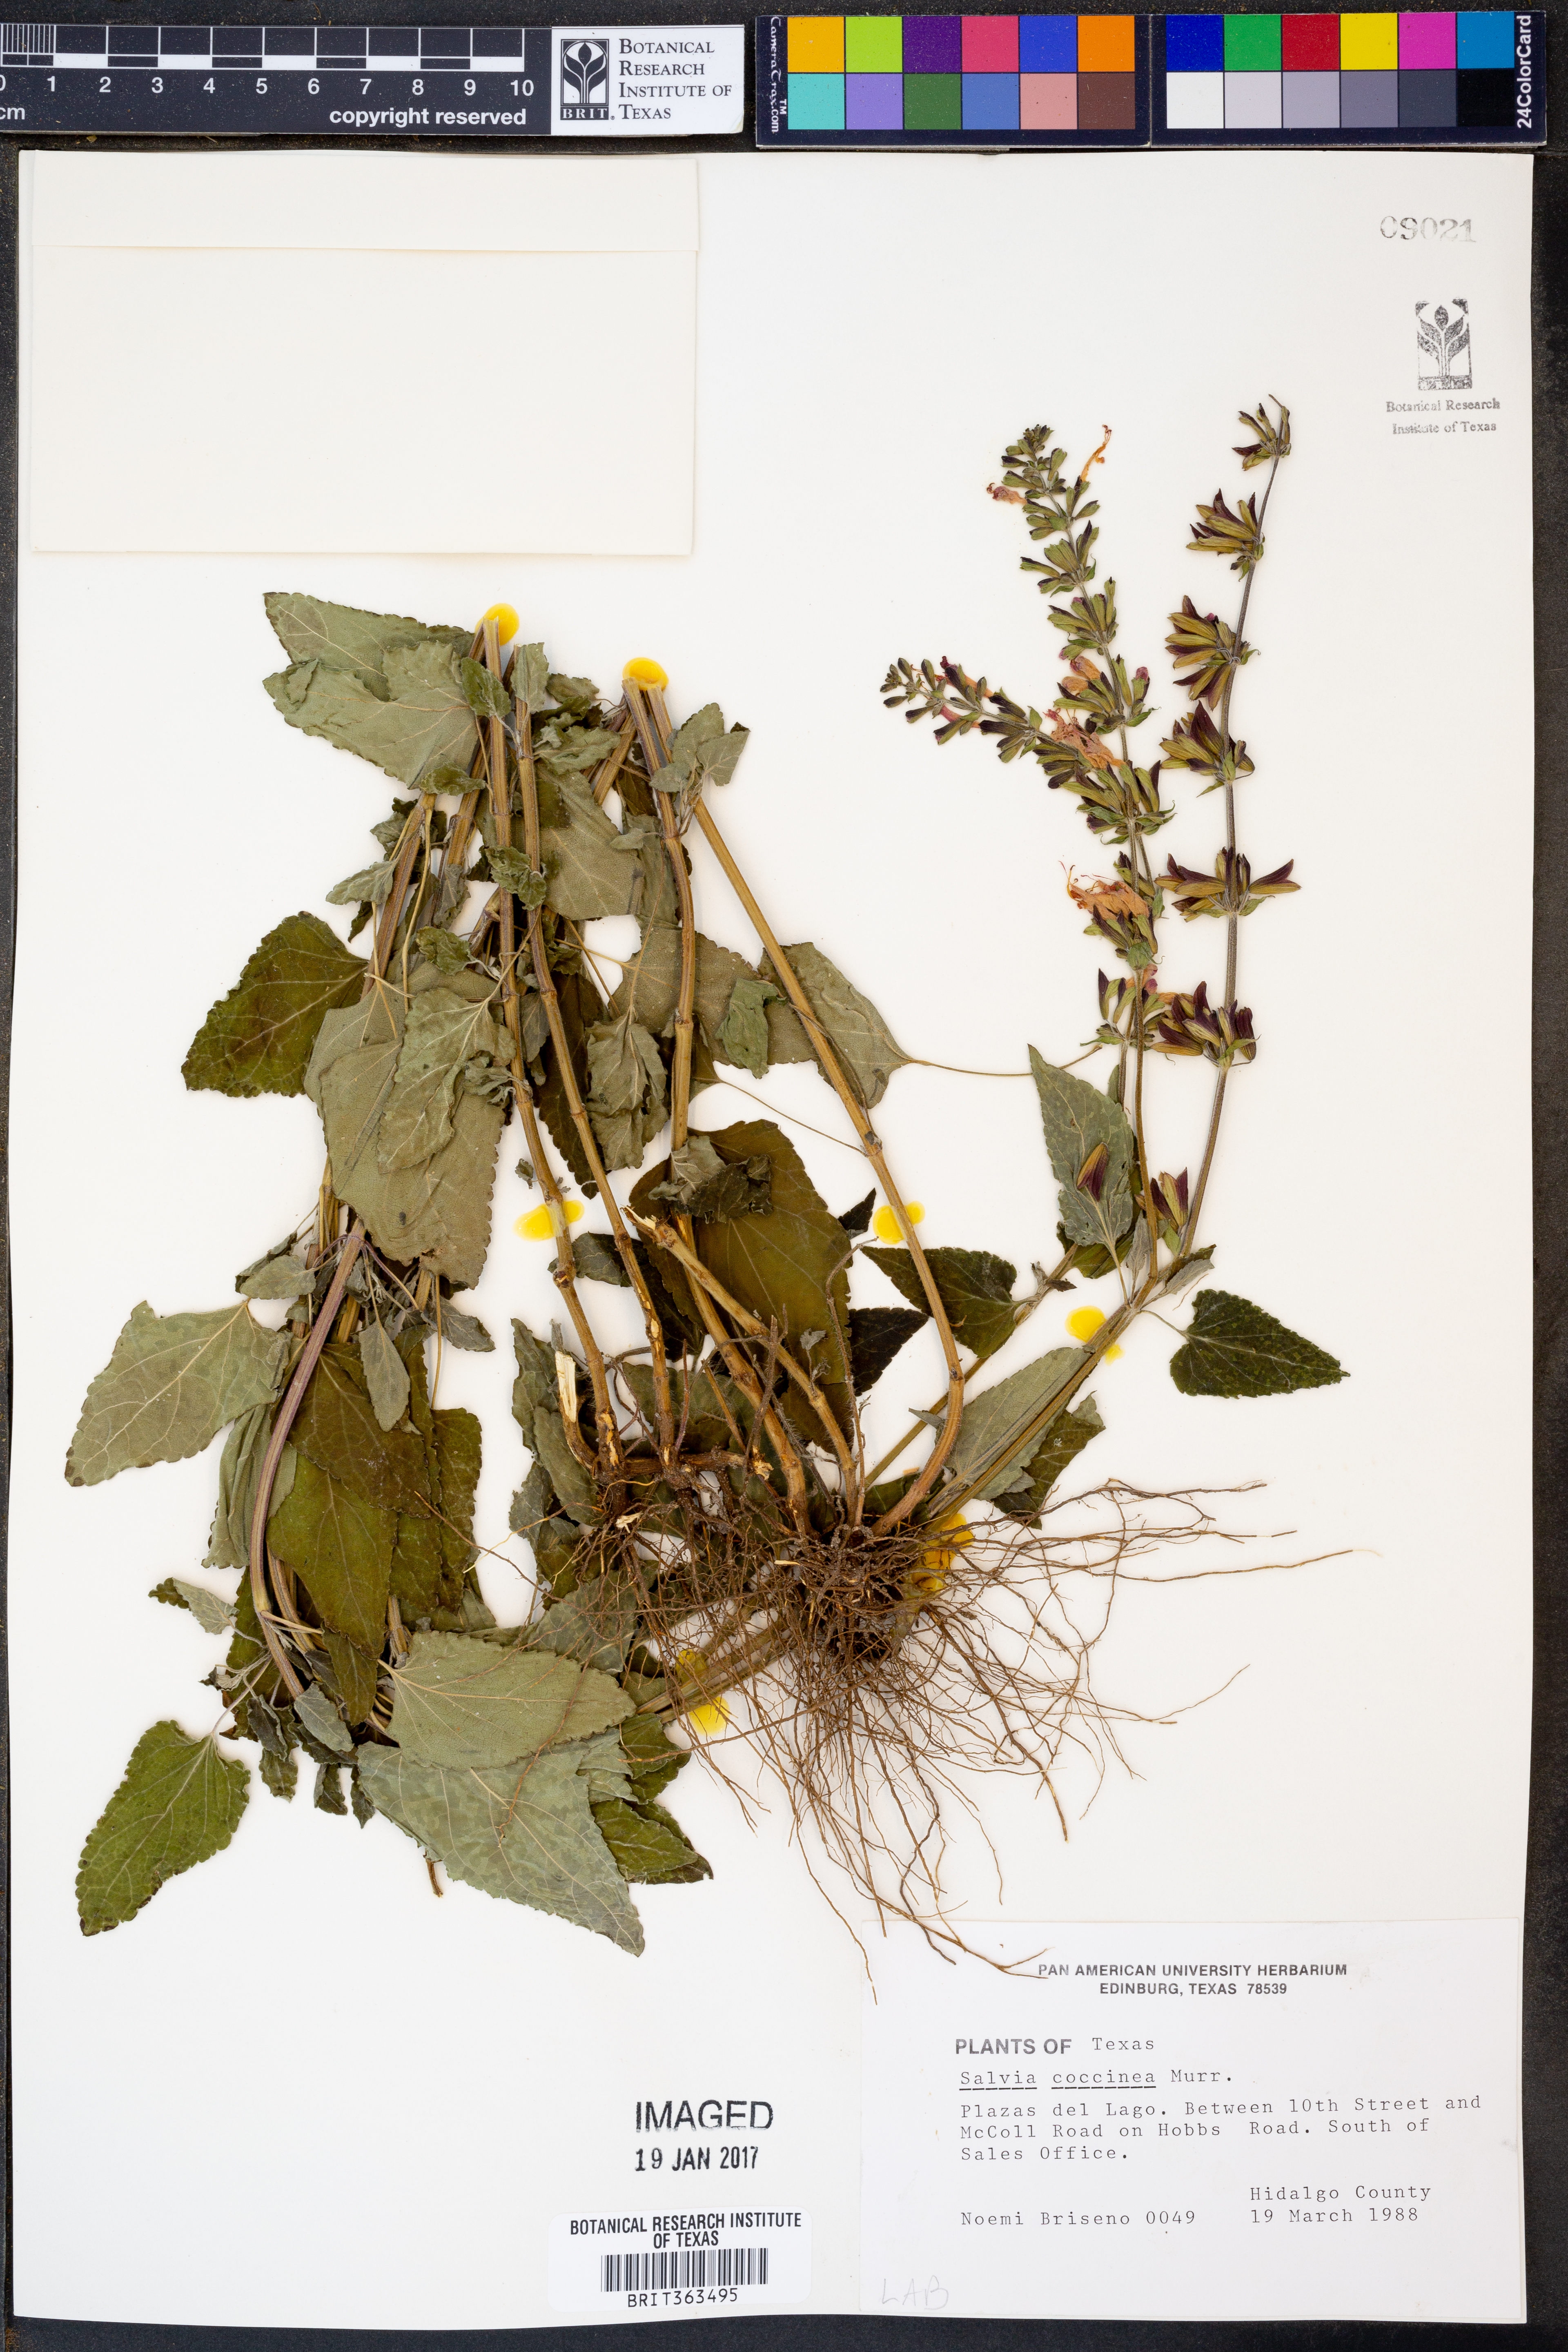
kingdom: Plantae
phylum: Tracheophyta
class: Magnoliopsida
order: Lamiales
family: Lamiaceae
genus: Salvia
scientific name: Salvia coccinea
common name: Blood sage
